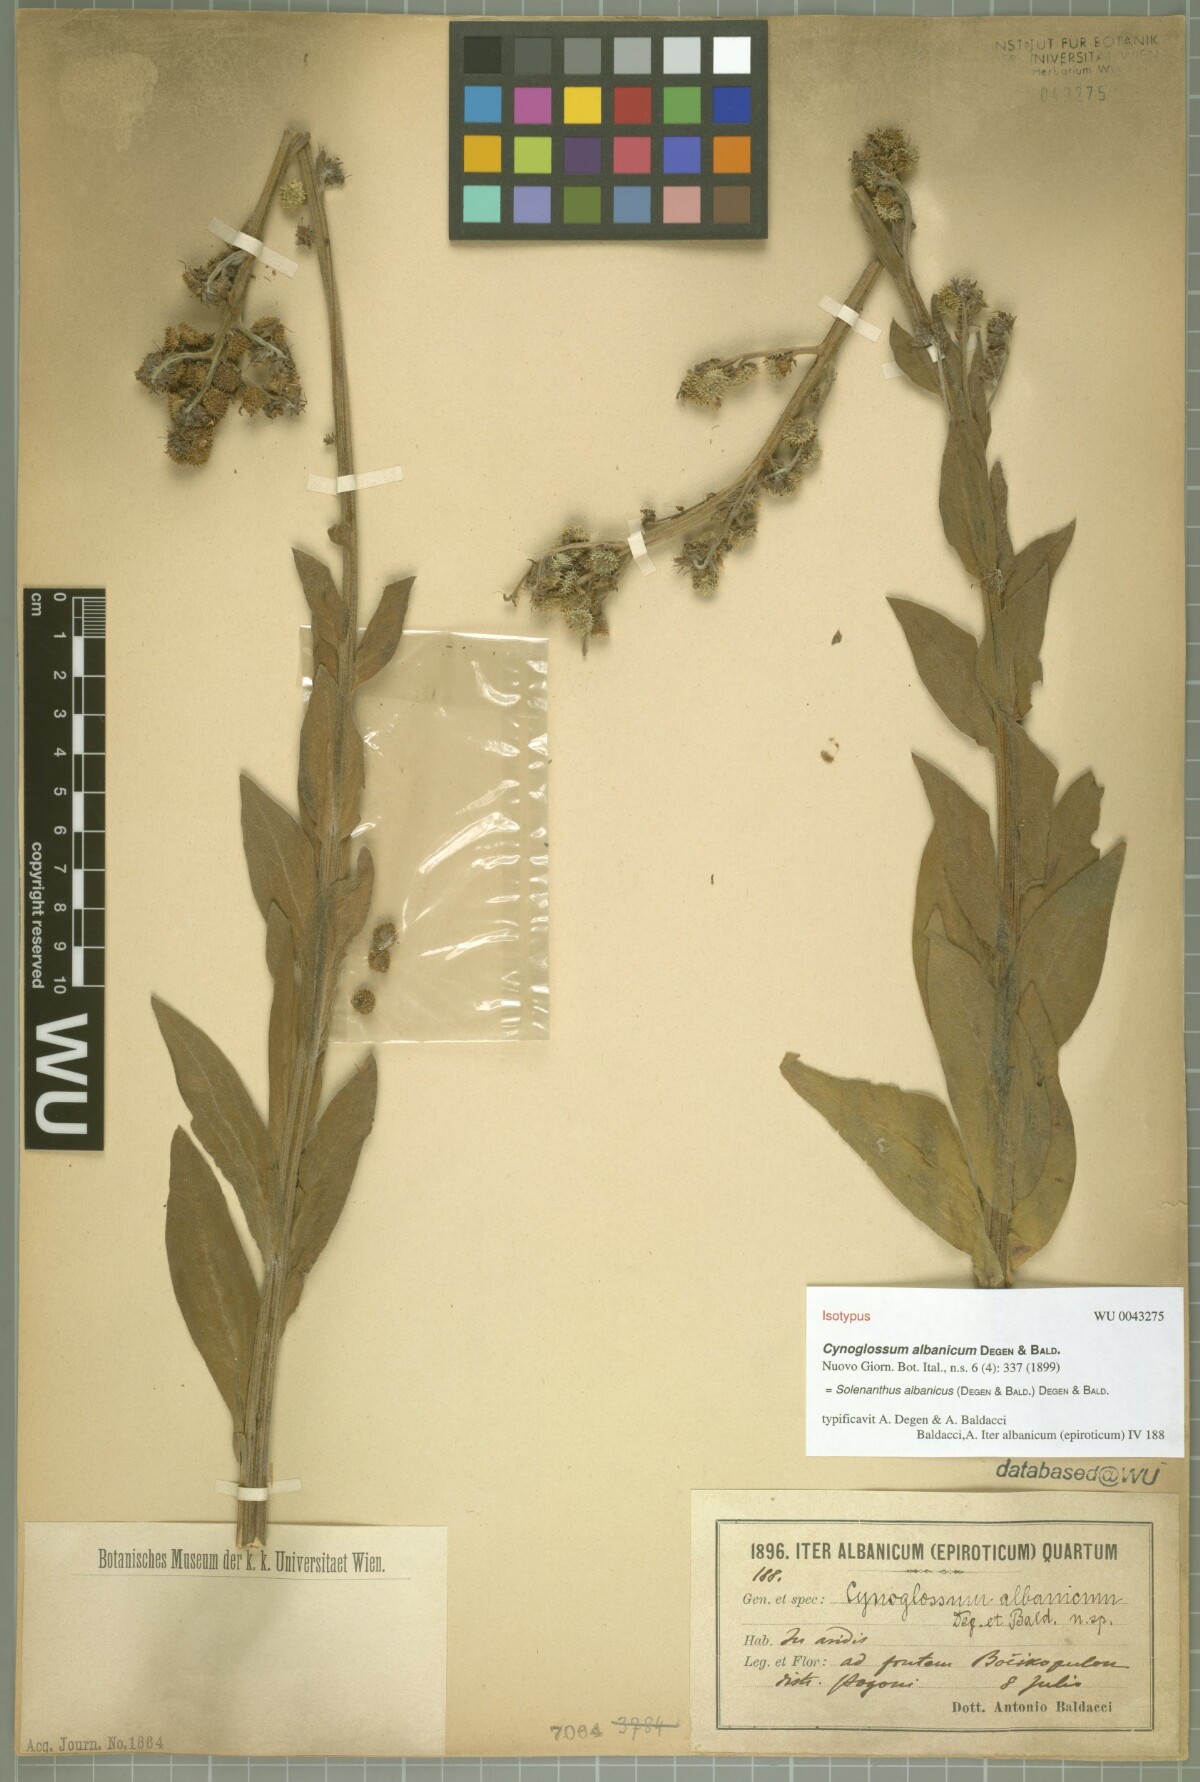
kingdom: Plantae
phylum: Tracheophyta
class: Magnoliopsida
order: Boraginales
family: Boraginaceae
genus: Solenanthus
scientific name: Solenanthus albanicus
